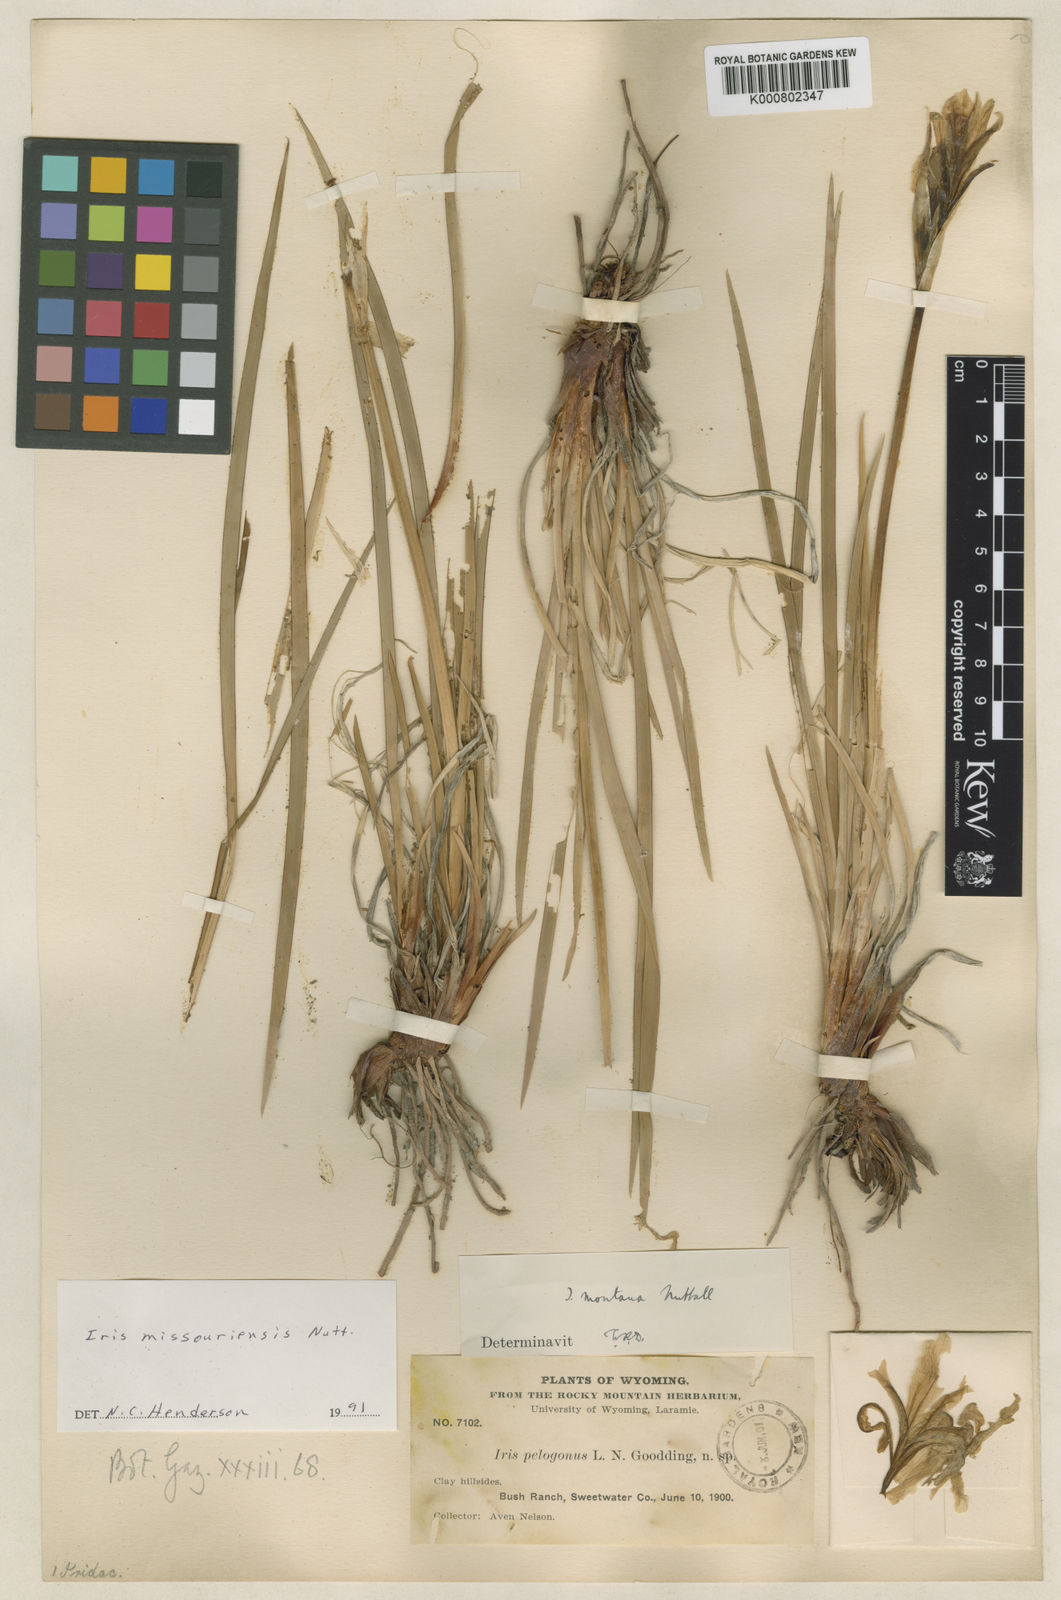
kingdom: Plantae
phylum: Tracheophyta
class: Liliopsida
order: Asparagales
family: Iridaceae
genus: Iris
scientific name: Iris missouriensis
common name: Rocky mountain iris
